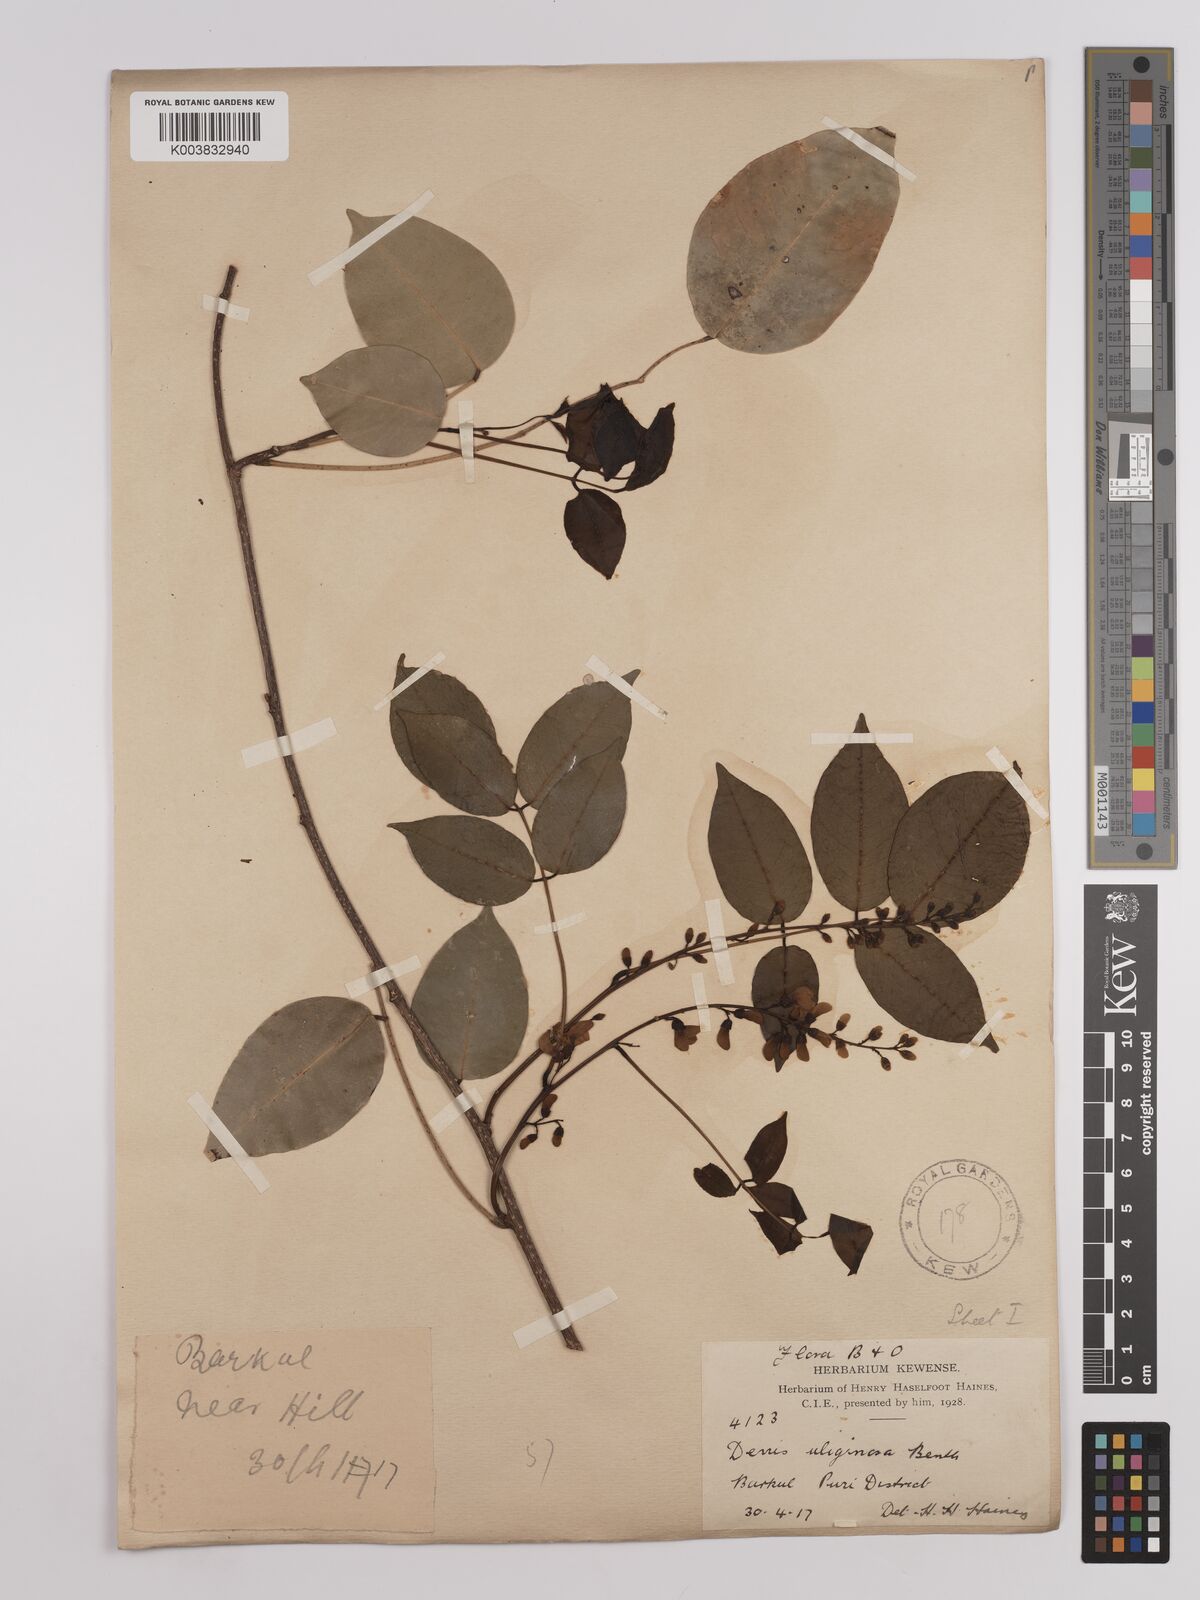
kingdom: Plantae
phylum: Tracheophyta
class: Magnoliopsida
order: Fabales
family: Fabaceae
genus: Derris
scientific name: Derris trifoliata
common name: Three-leaf derris
